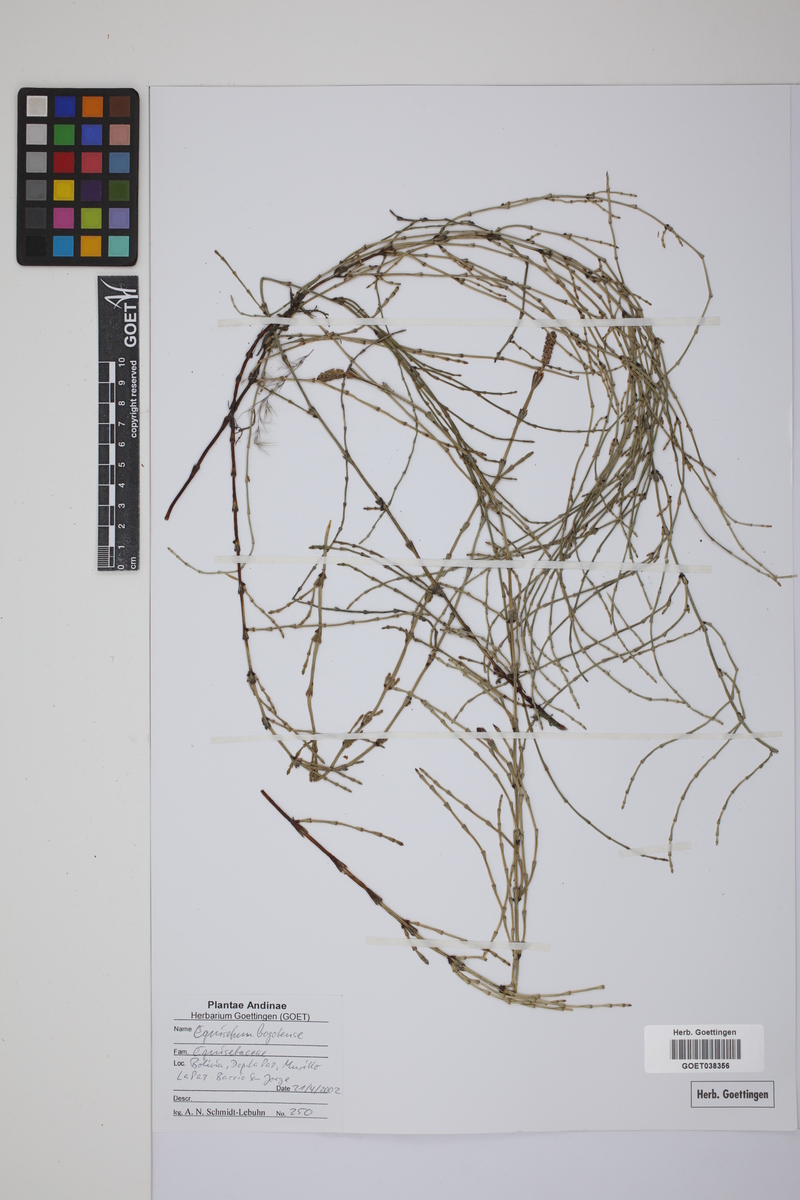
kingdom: Plantae
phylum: Tracheophyta
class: Polypodiopsida
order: Equisetales
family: Equisetaceae
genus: Equisetum
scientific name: Equisetum bogotense
